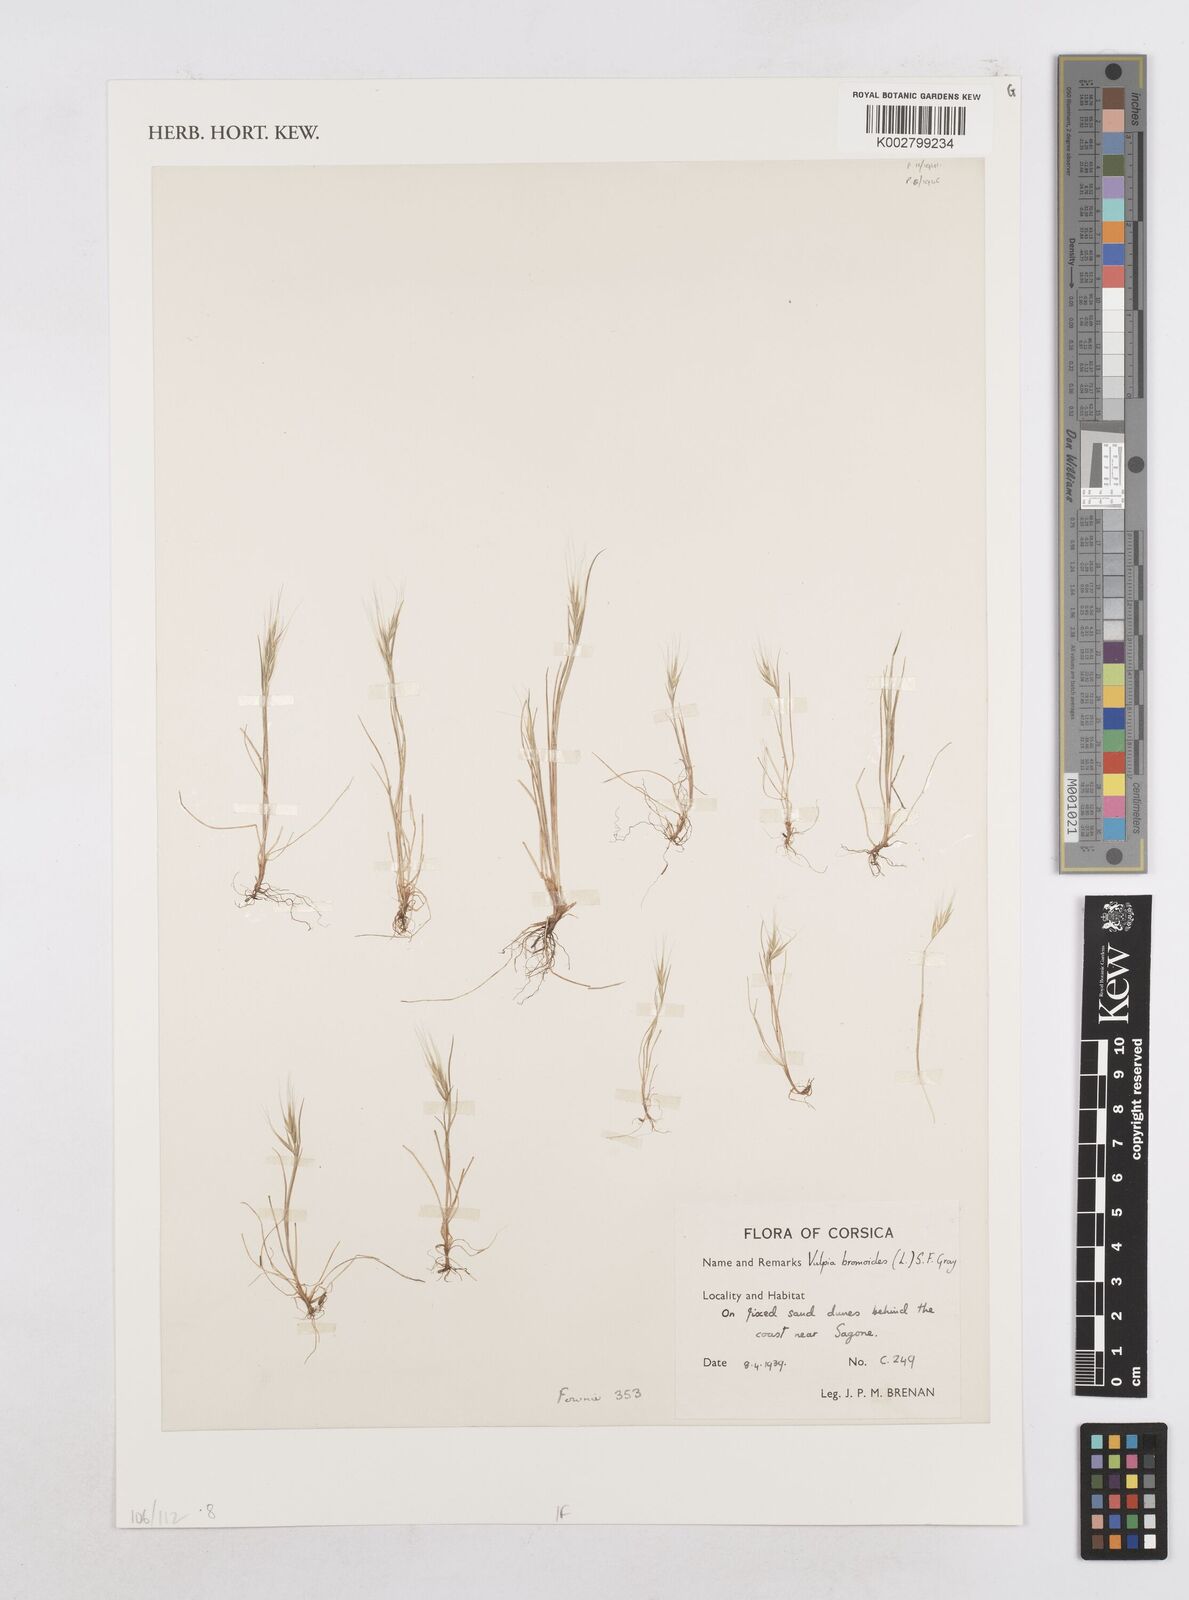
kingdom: Plantae
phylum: Tracheophyta
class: Liliopsida
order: Poales
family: Poaceae
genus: Festuca
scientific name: Festuca bromoides
